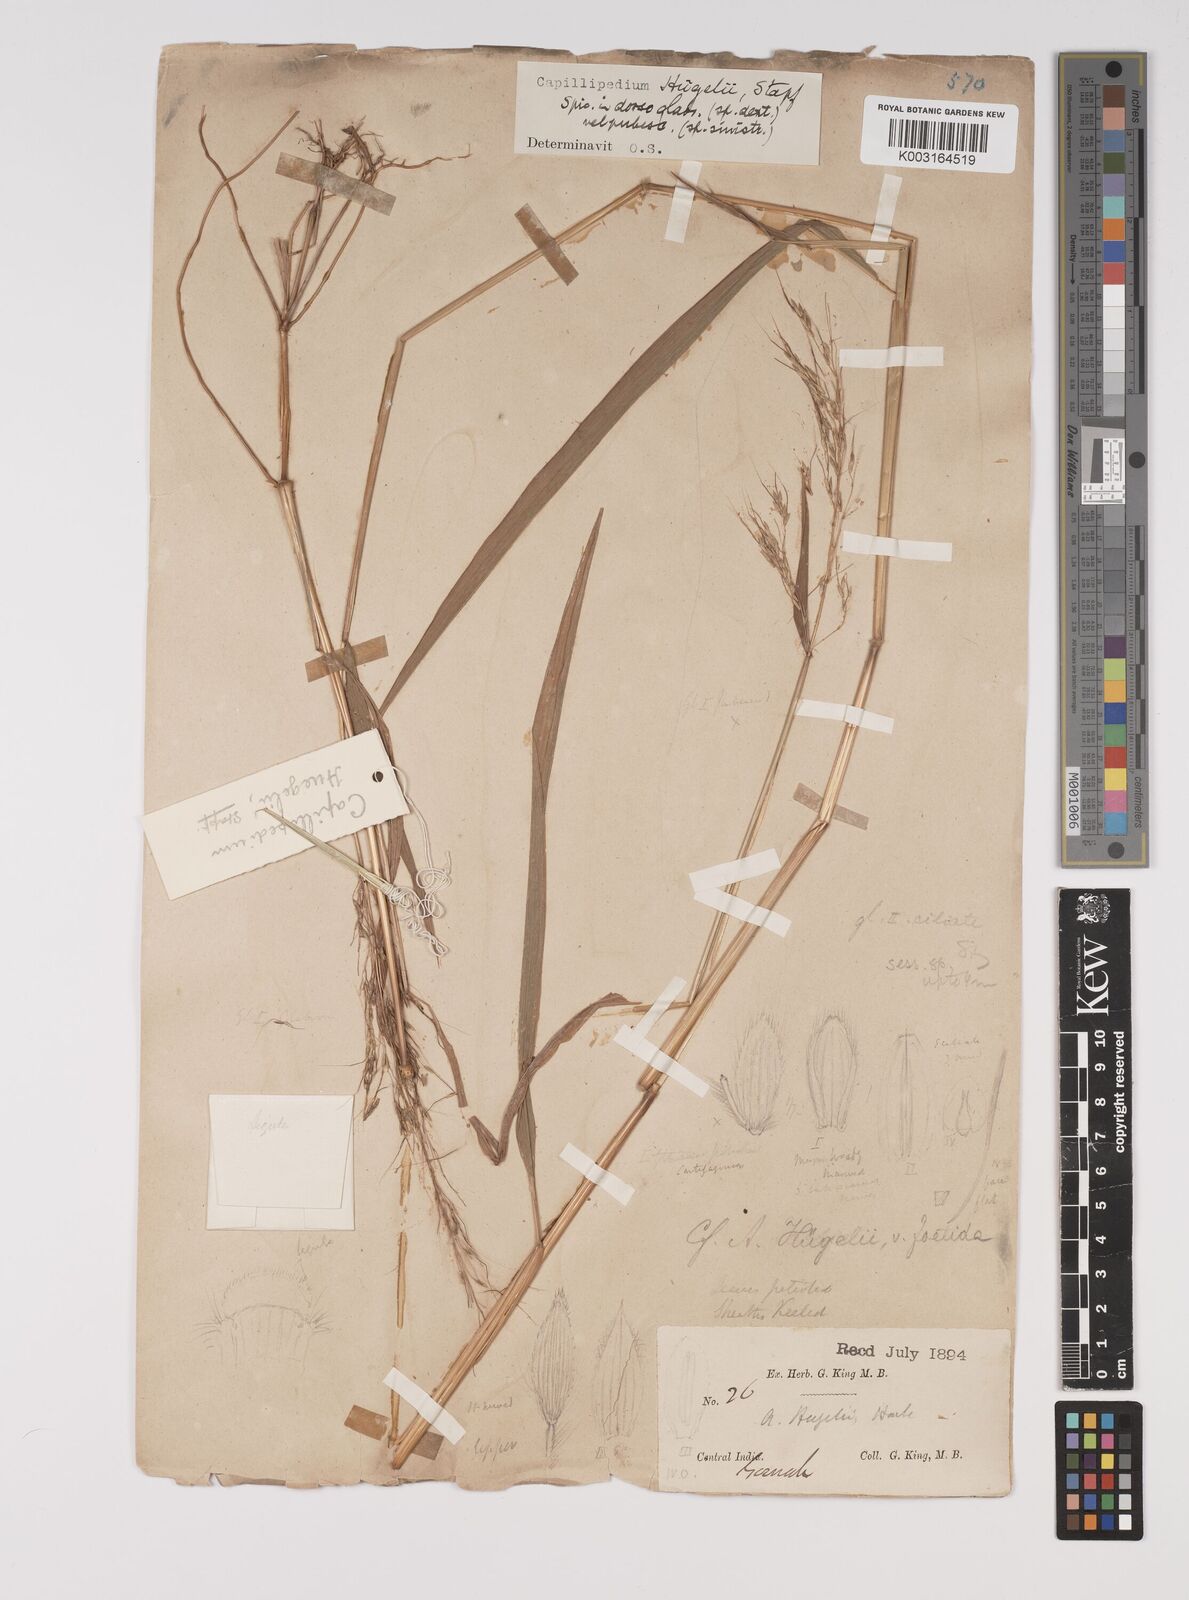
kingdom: Plantae
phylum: Tracheophyta
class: Liliopsida
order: Poales
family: Poaceae
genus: Capillipedium
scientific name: Capillipedium huegelii
